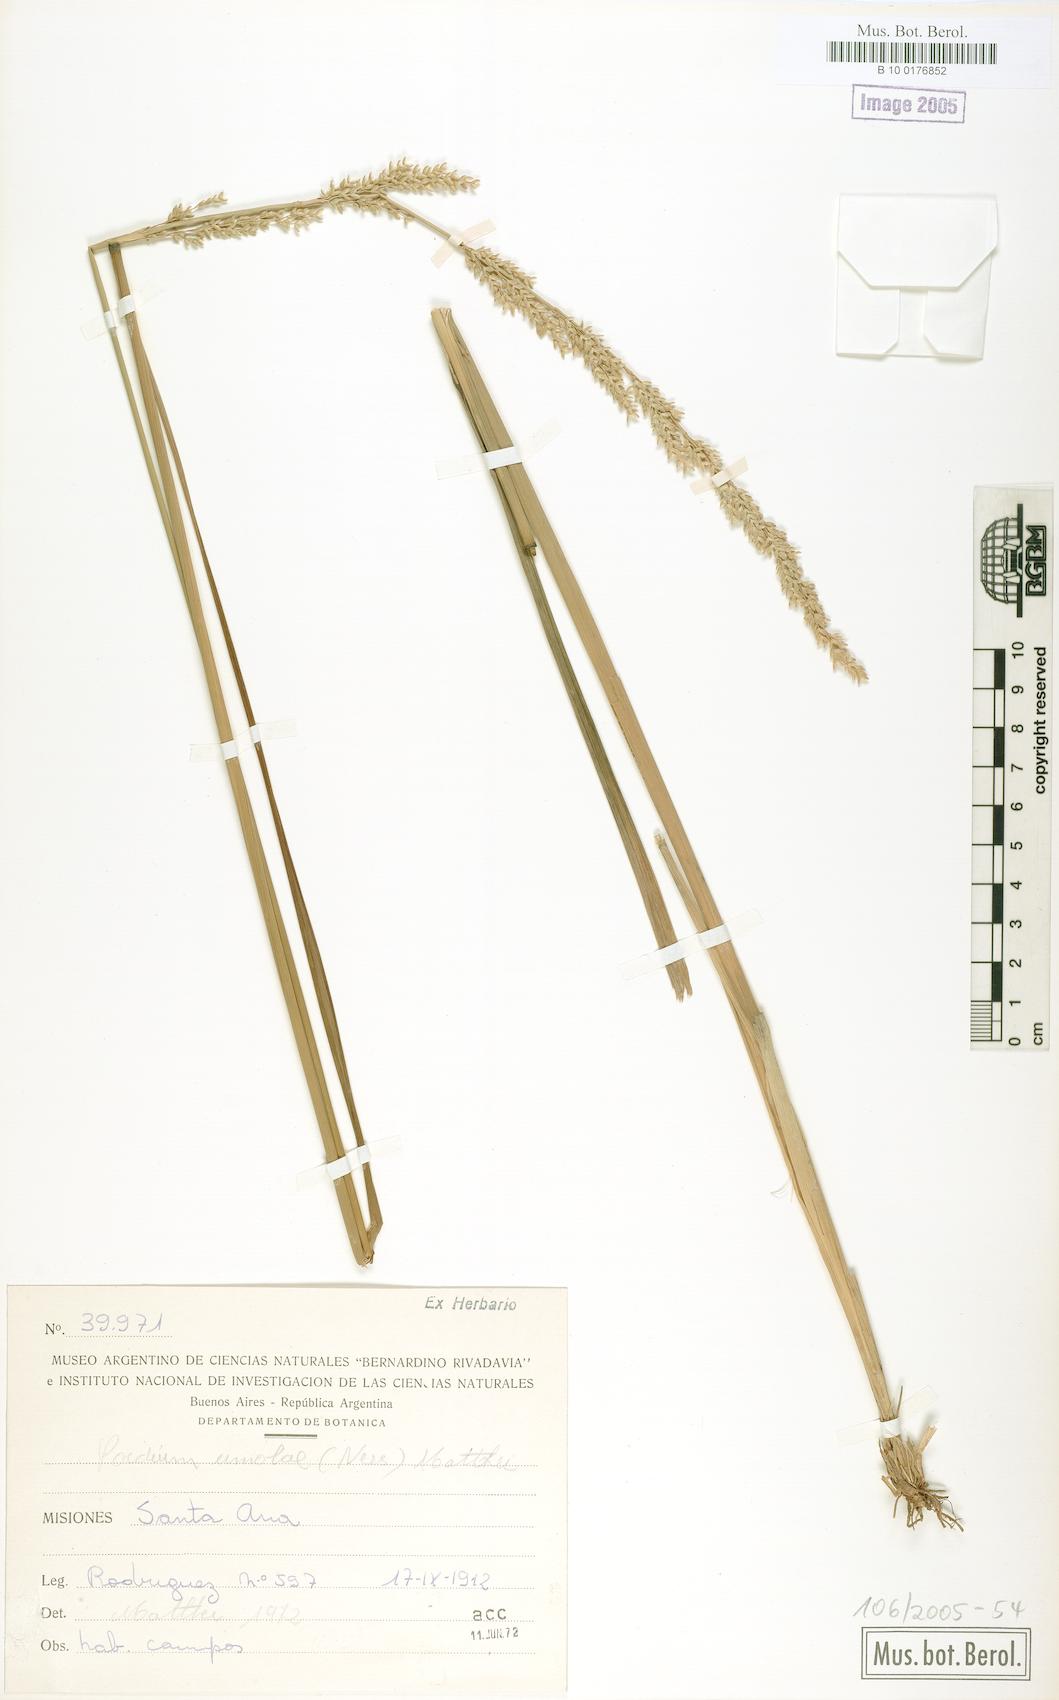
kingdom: Plantae
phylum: Tracheophyta
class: Liliopsida
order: Poales
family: Poaceae
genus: Poidium
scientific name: Poidium uniolae
